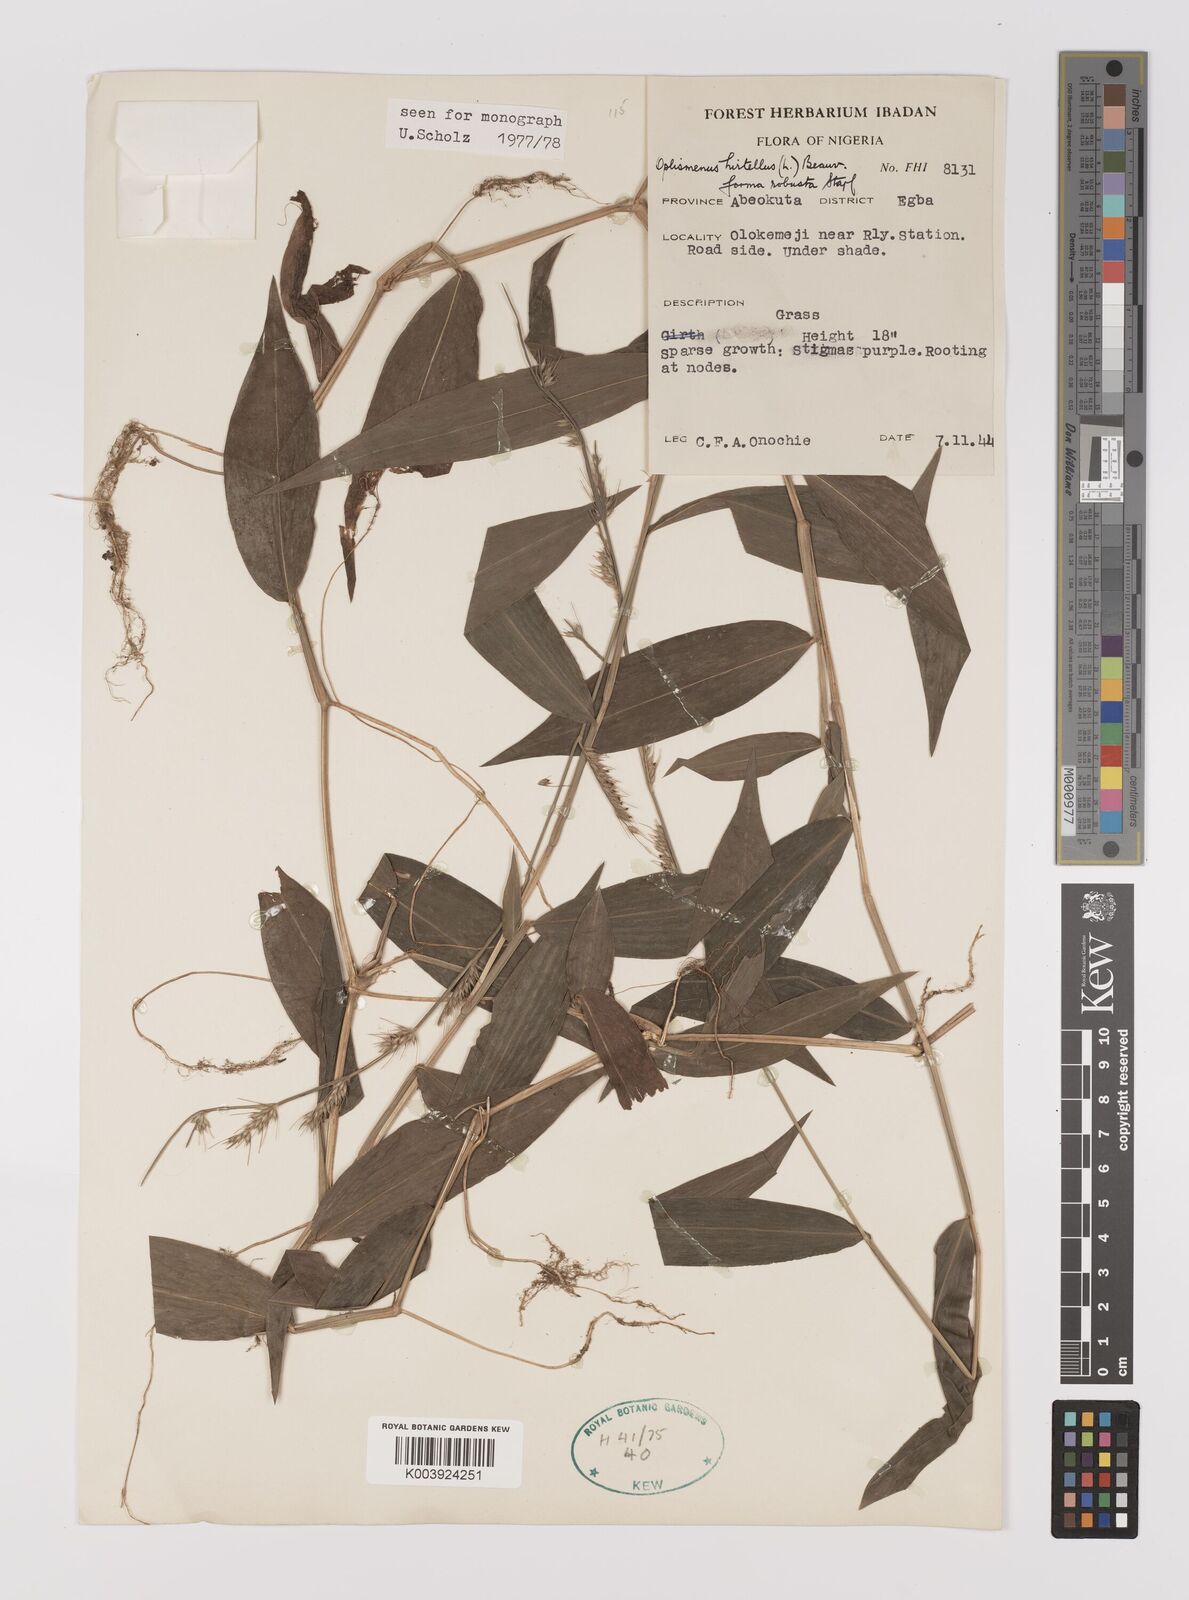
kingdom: Plantae
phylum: Tracheophyta
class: Liliopsida
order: Poales
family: Poaceae
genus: Oplismenus
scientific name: Oplismenus hirtellus
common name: Basketgrass
